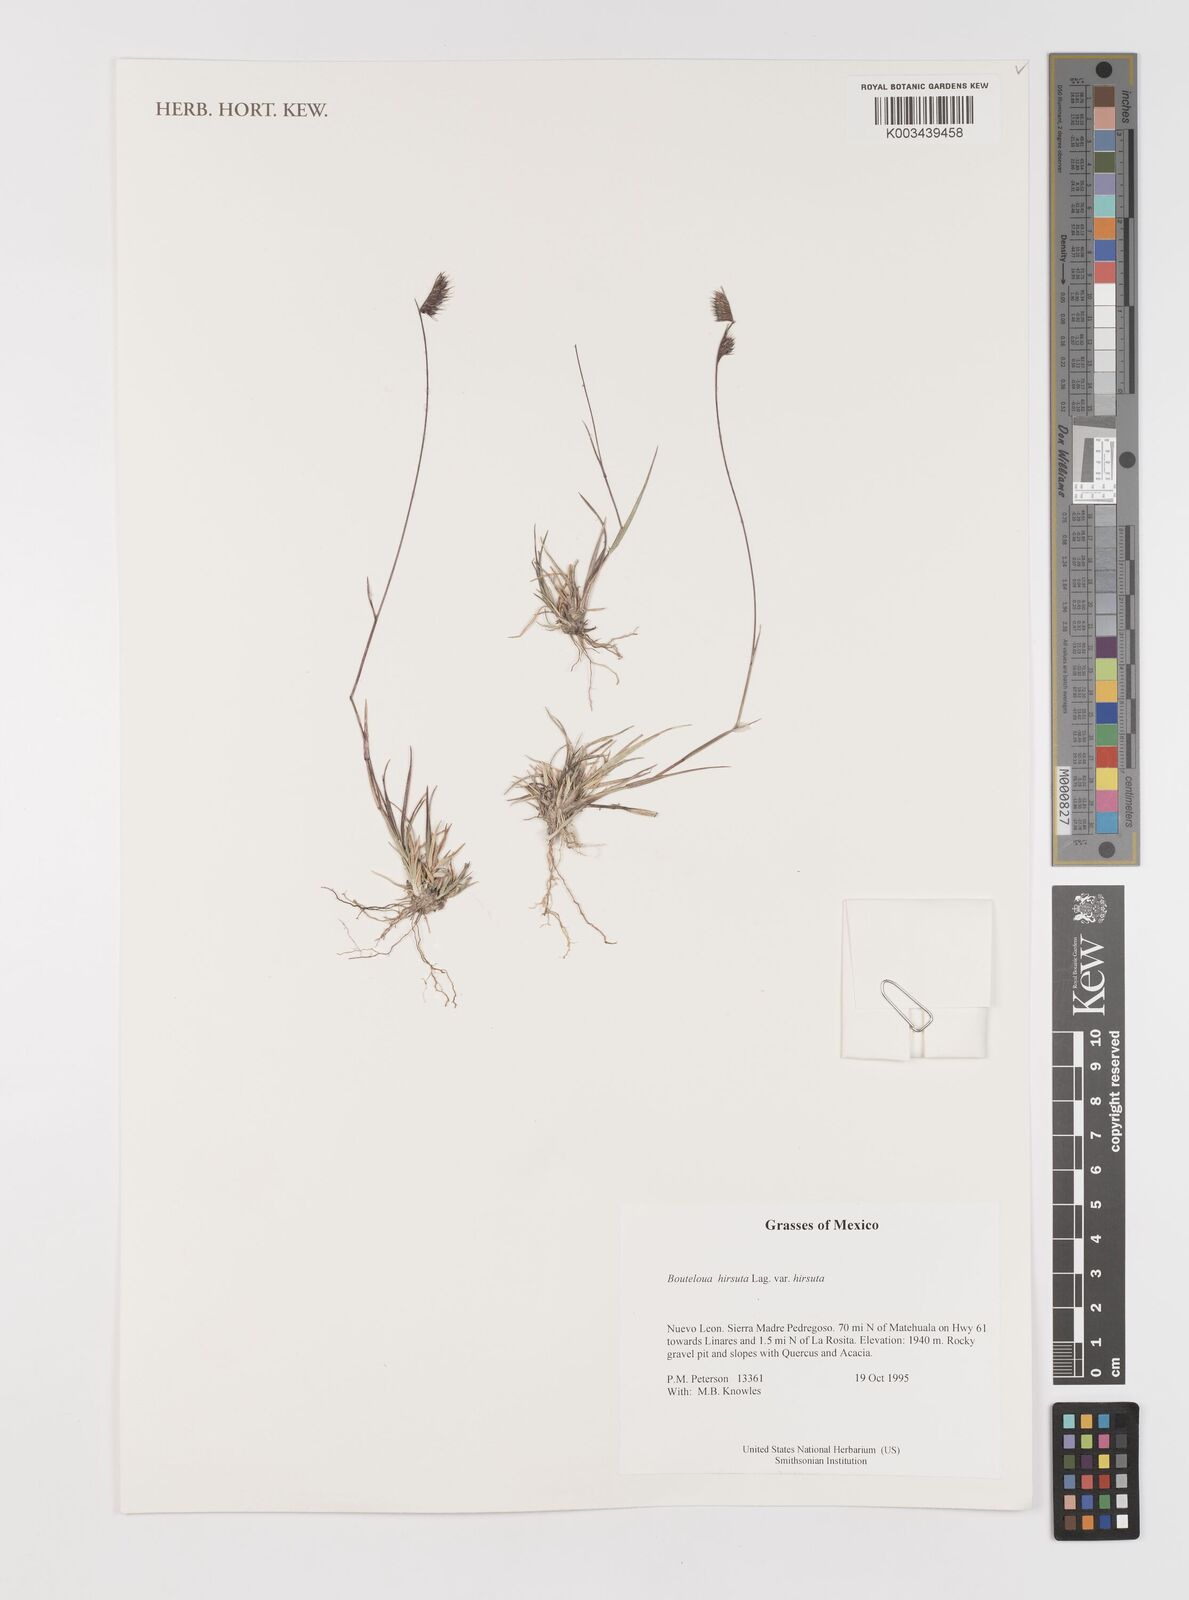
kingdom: Plantae
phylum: Tracheophyta
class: Liliopsida
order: Poales
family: Poaceae
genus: Bouteloua
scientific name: Bouteloua hirsuta
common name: Hairy grama
